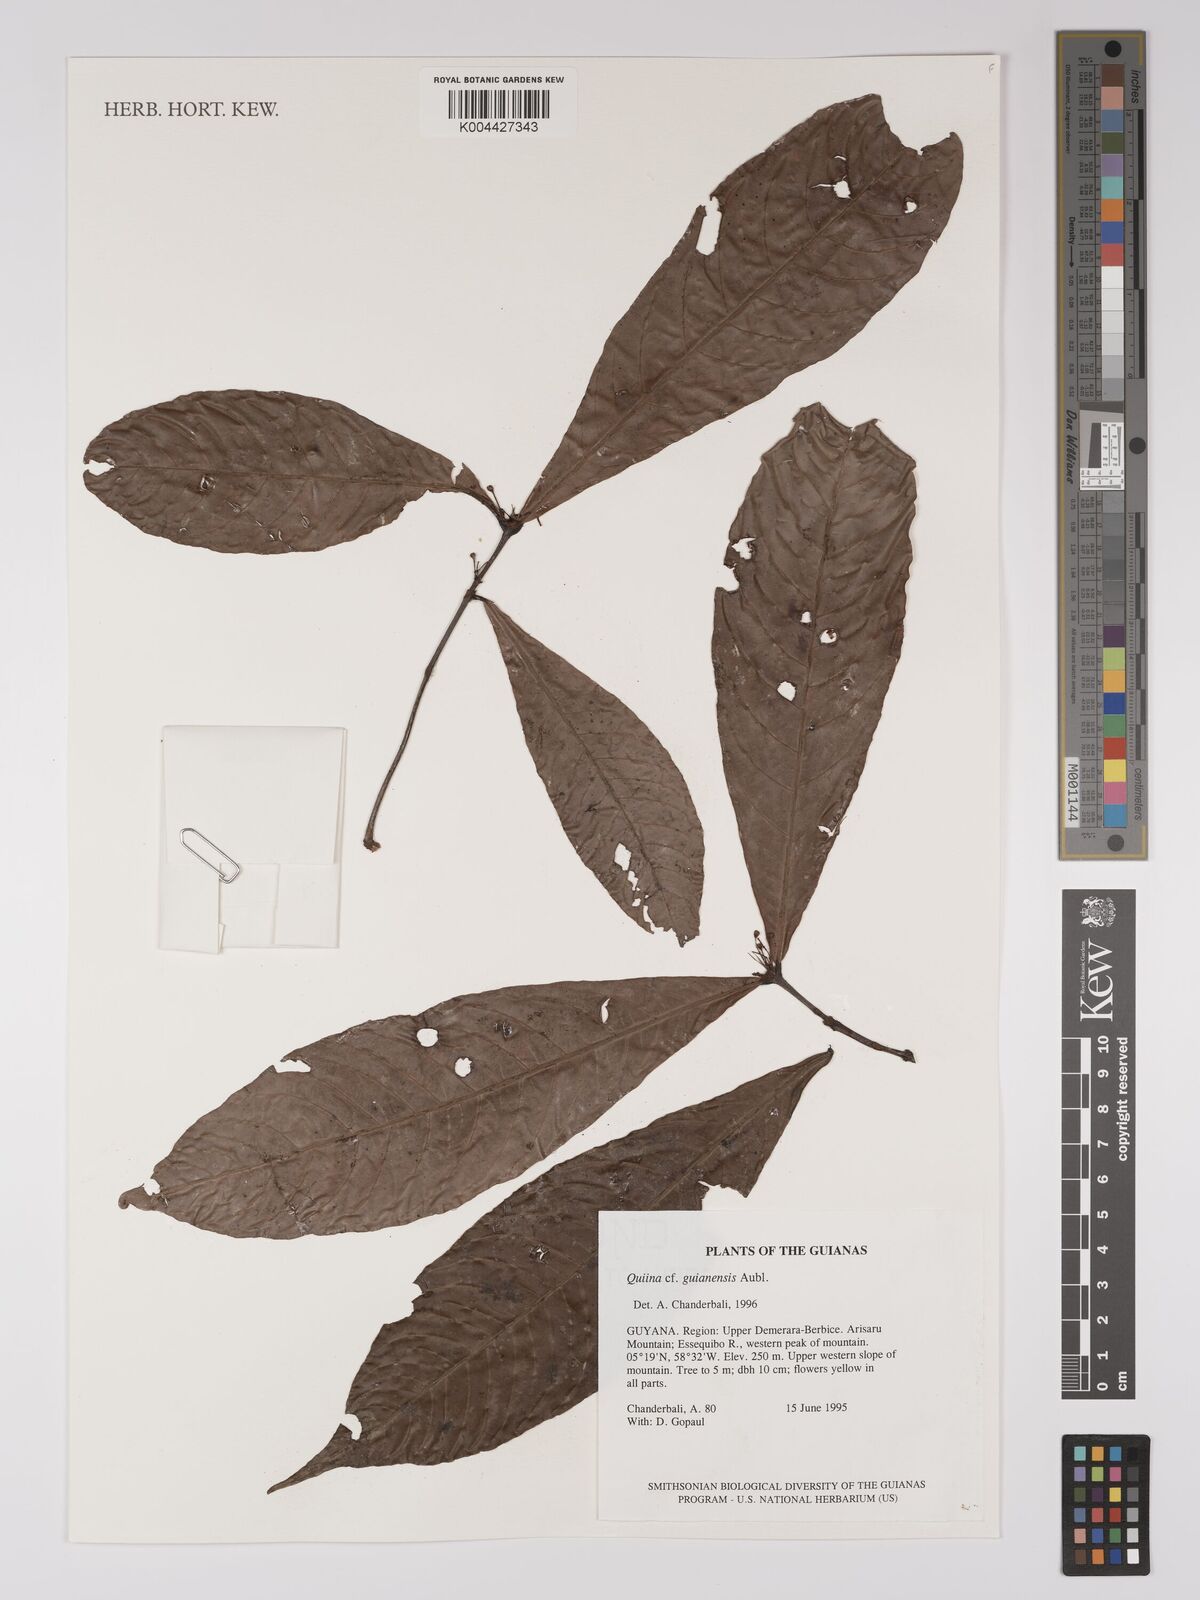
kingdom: Plantae
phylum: Tracheophyta
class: Magnoliopsida
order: Malpighiales
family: Quiinaceae
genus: Quiina
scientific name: Quiina guianensis
